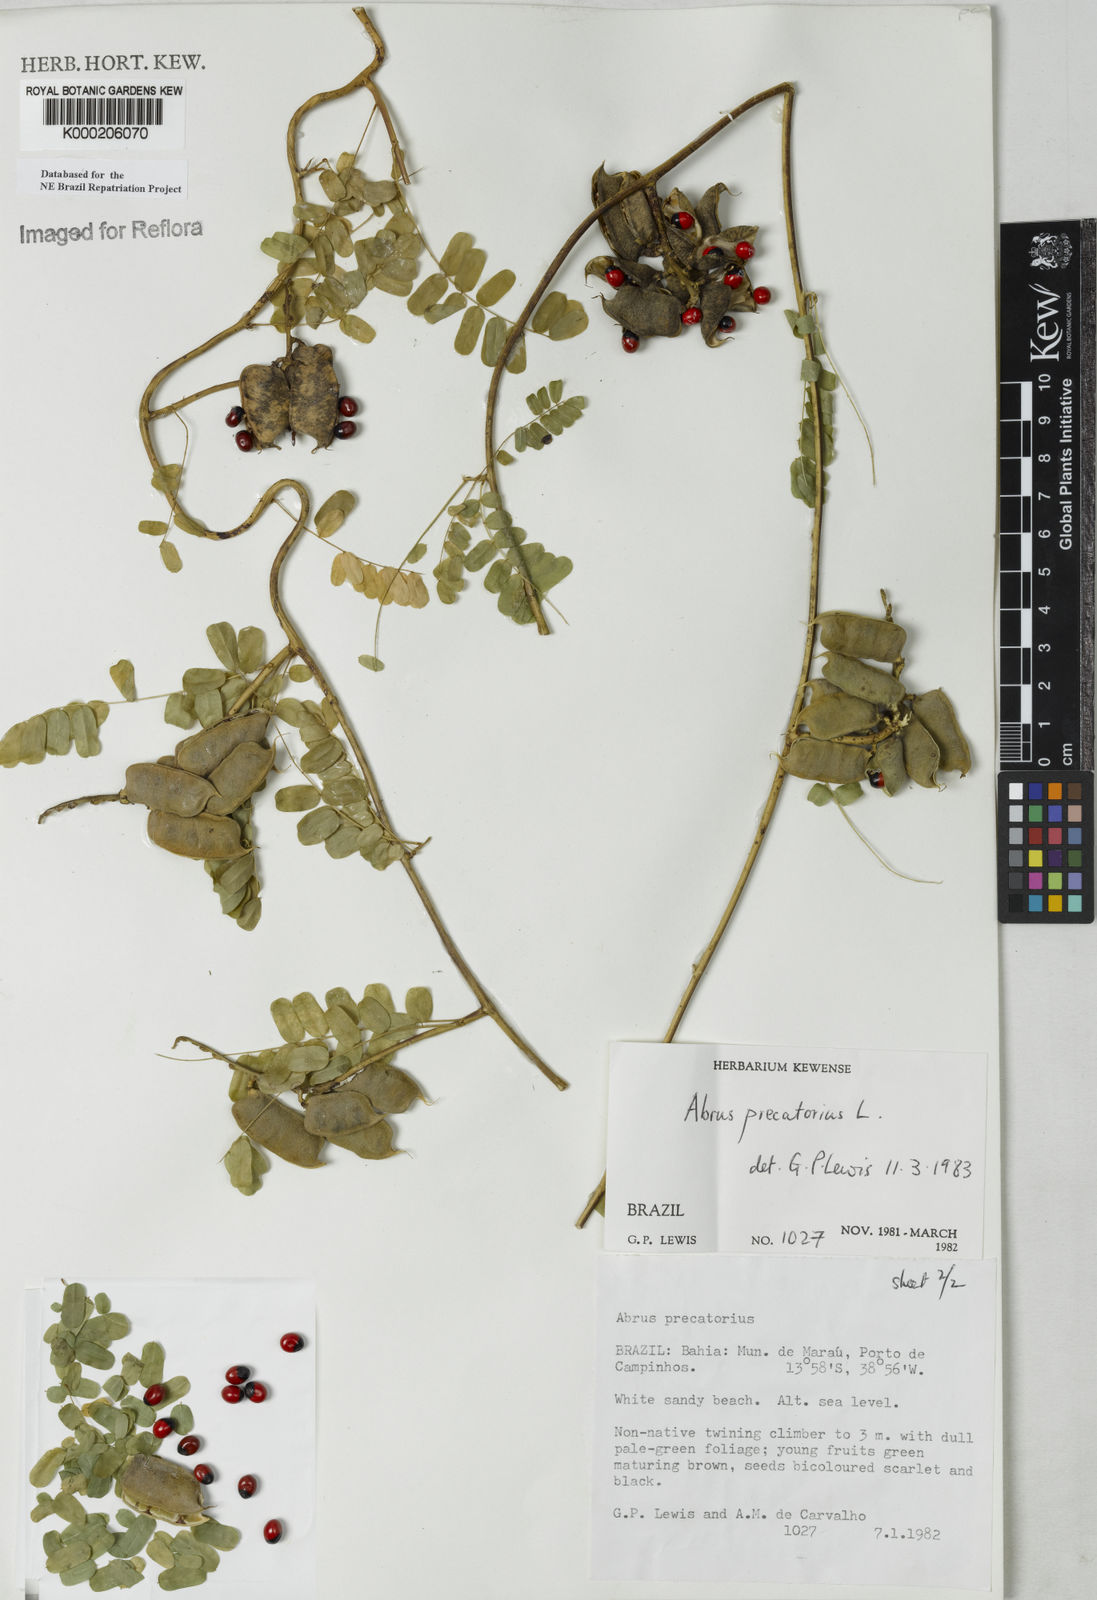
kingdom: Plantae
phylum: Tracheophyta
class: Magnoliopsida
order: Fabales
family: Fabaceae
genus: Abrus
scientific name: Abrus precatorius
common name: Rosarypea
